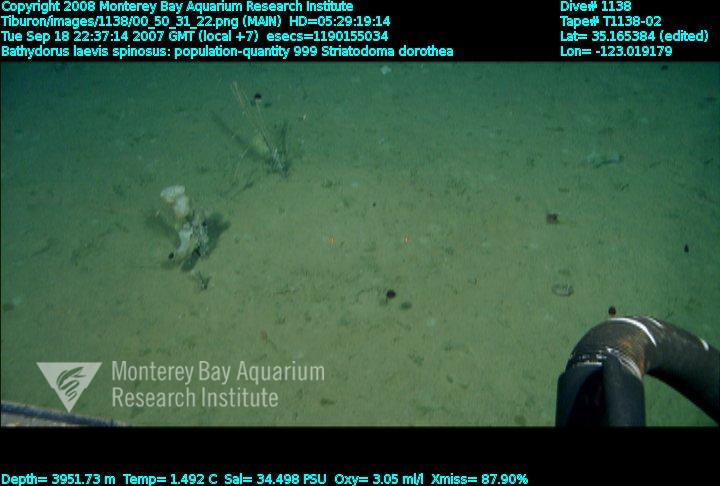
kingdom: Animalia
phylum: Porifera
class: Hexactinellida
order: Lyssacinosida
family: Rossellidae
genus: Bathydorus
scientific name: Bathydorus spinosus
